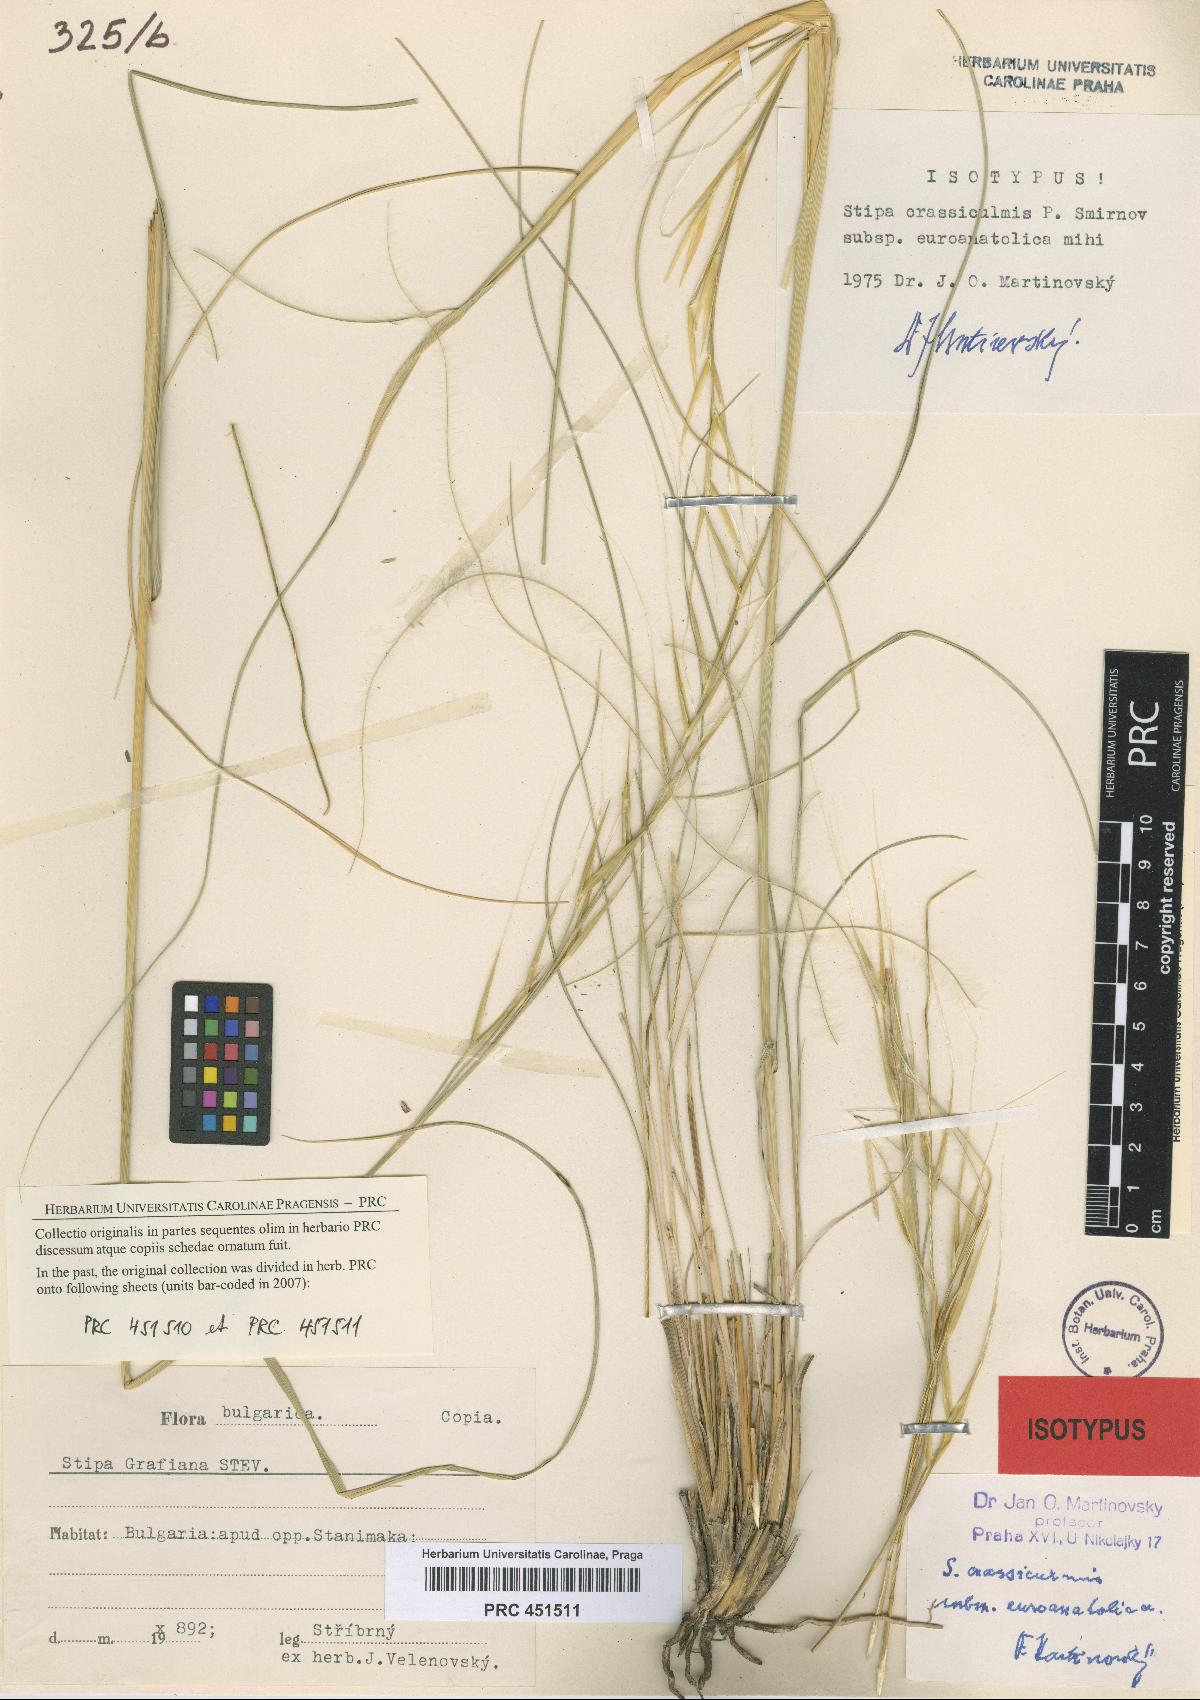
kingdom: Plantae
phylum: Tracheophyta
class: Liliopsida
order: Poales
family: Poaceae
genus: Stipa
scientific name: Stipa pulcherrima
